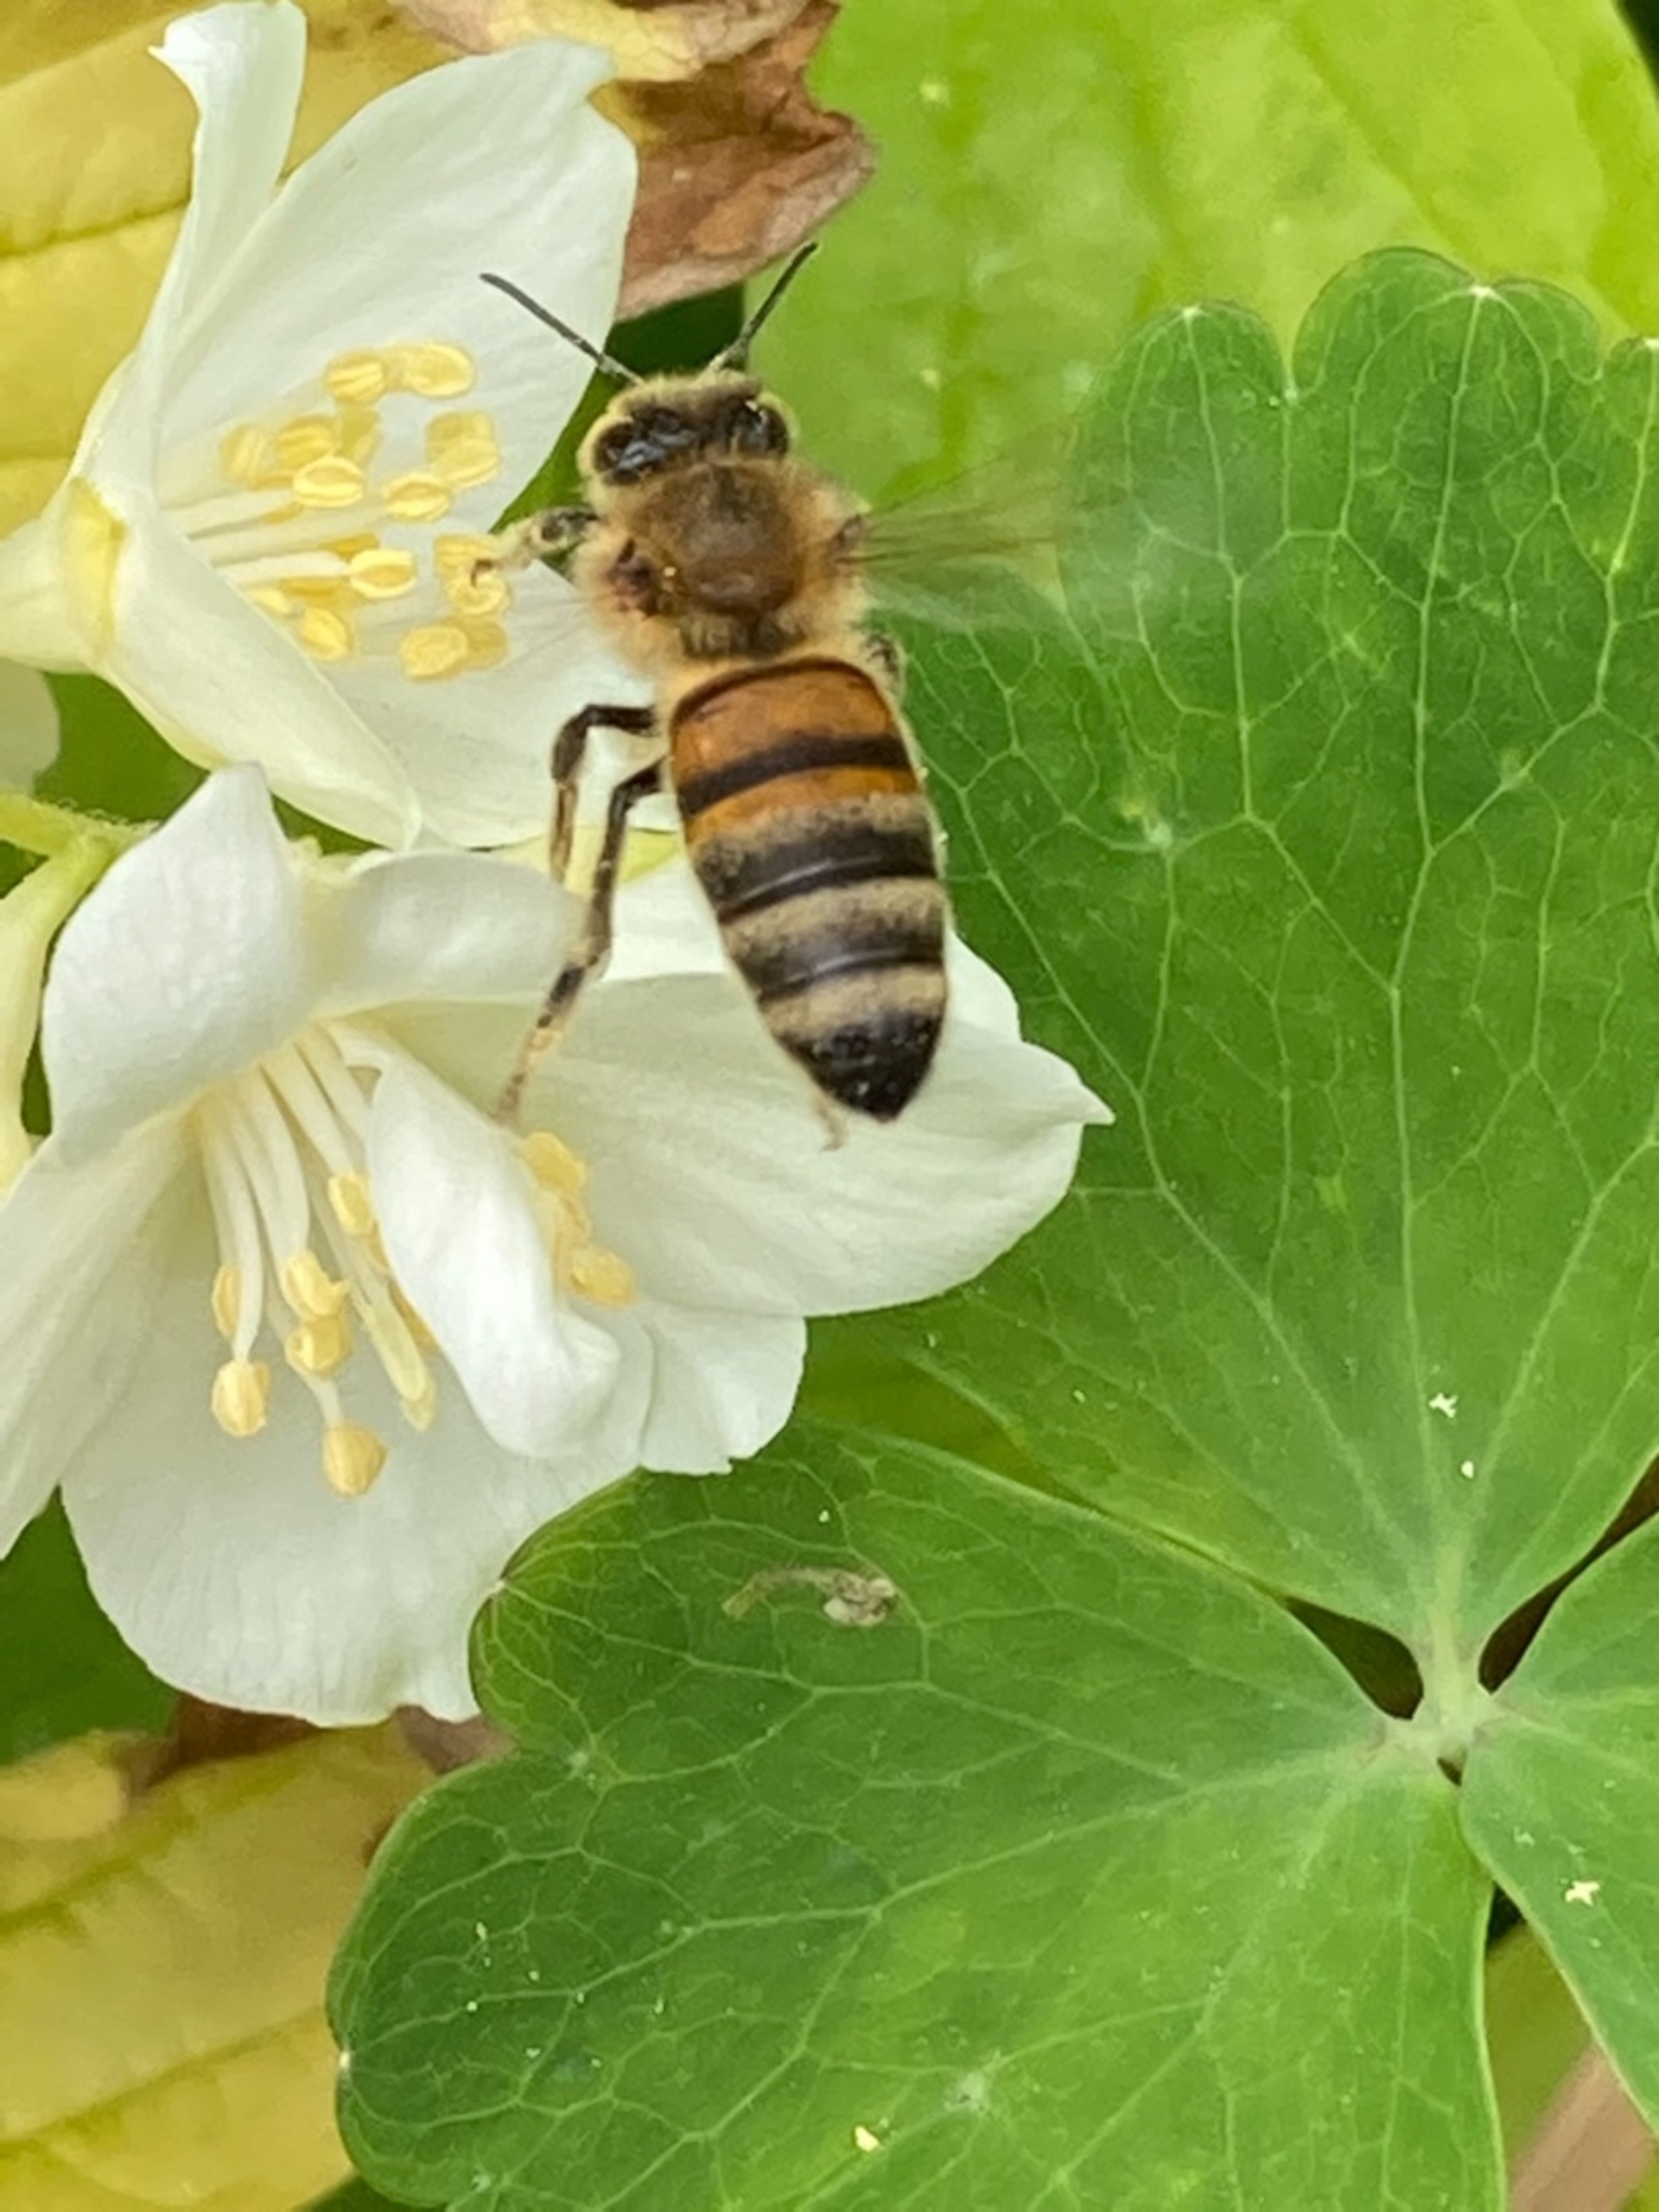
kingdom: Animalia
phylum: Arthropoda
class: Insecta
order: Hymenoptera
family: Apidae
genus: Apis
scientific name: Apis mellifera
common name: Honningbi
